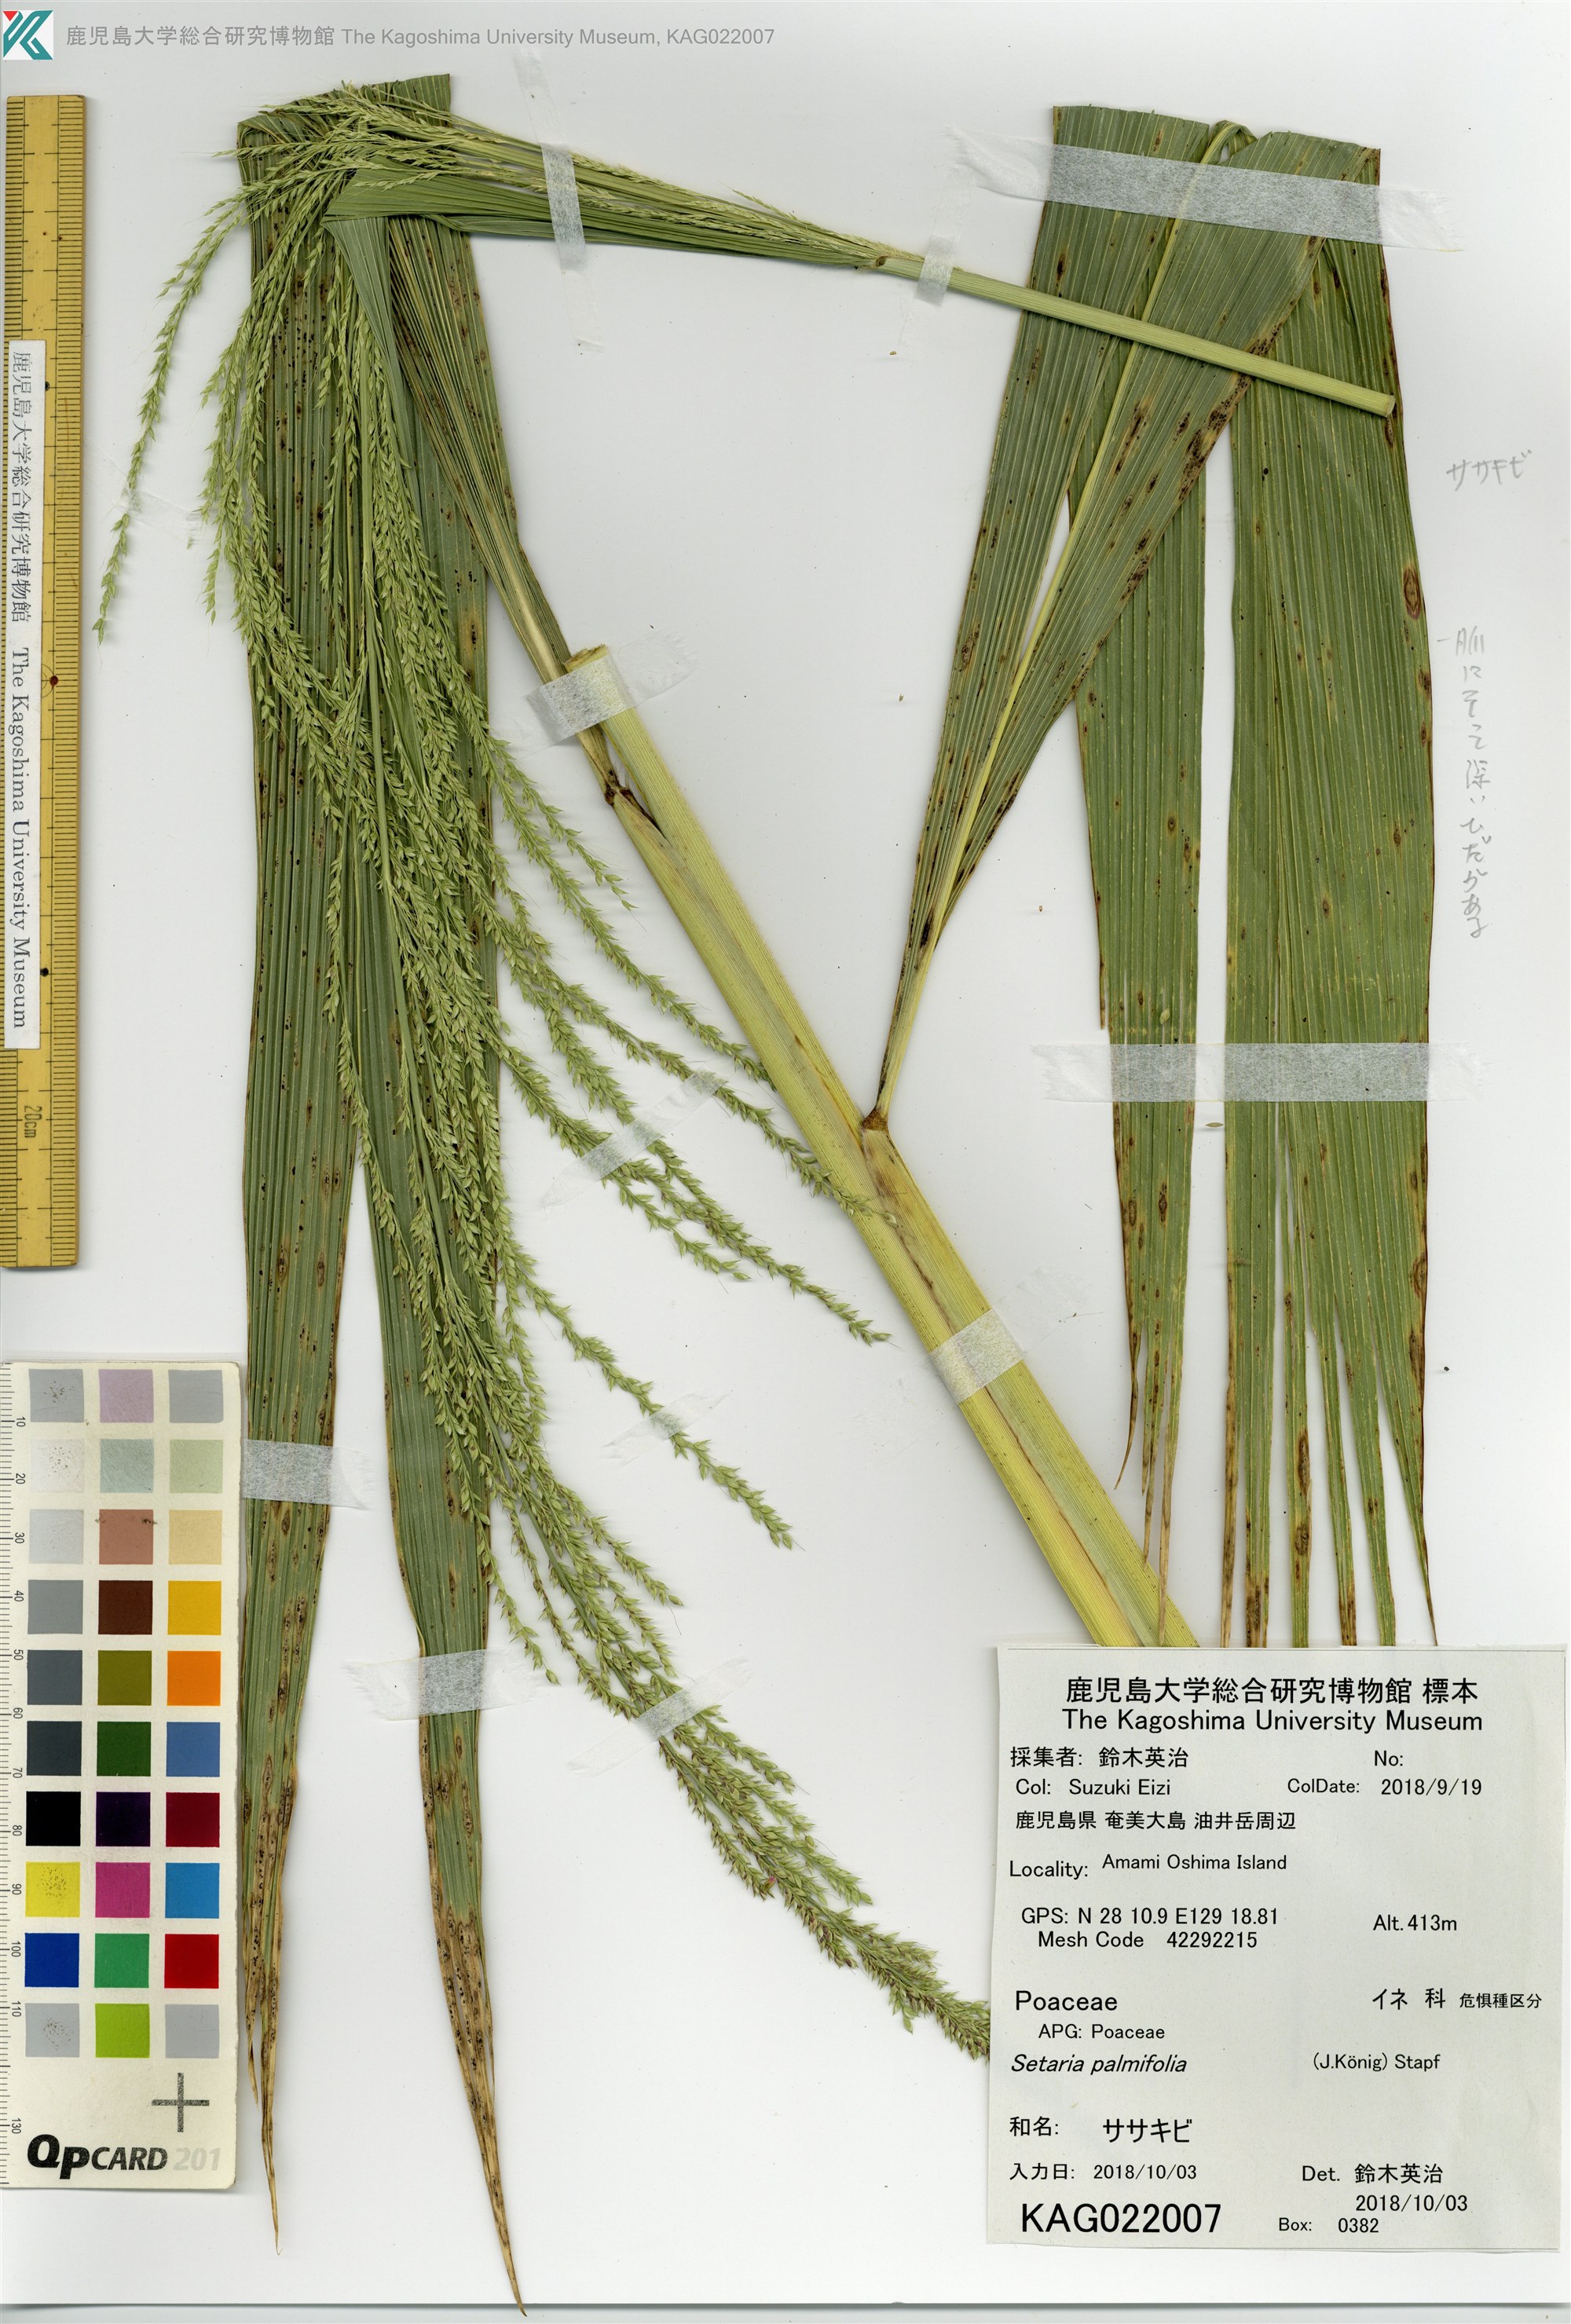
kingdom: Plantae
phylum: Tracheophyta
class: Liliopsida
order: Poales
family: Poaceae
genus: Setaria
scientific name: Setaria palmifolia
